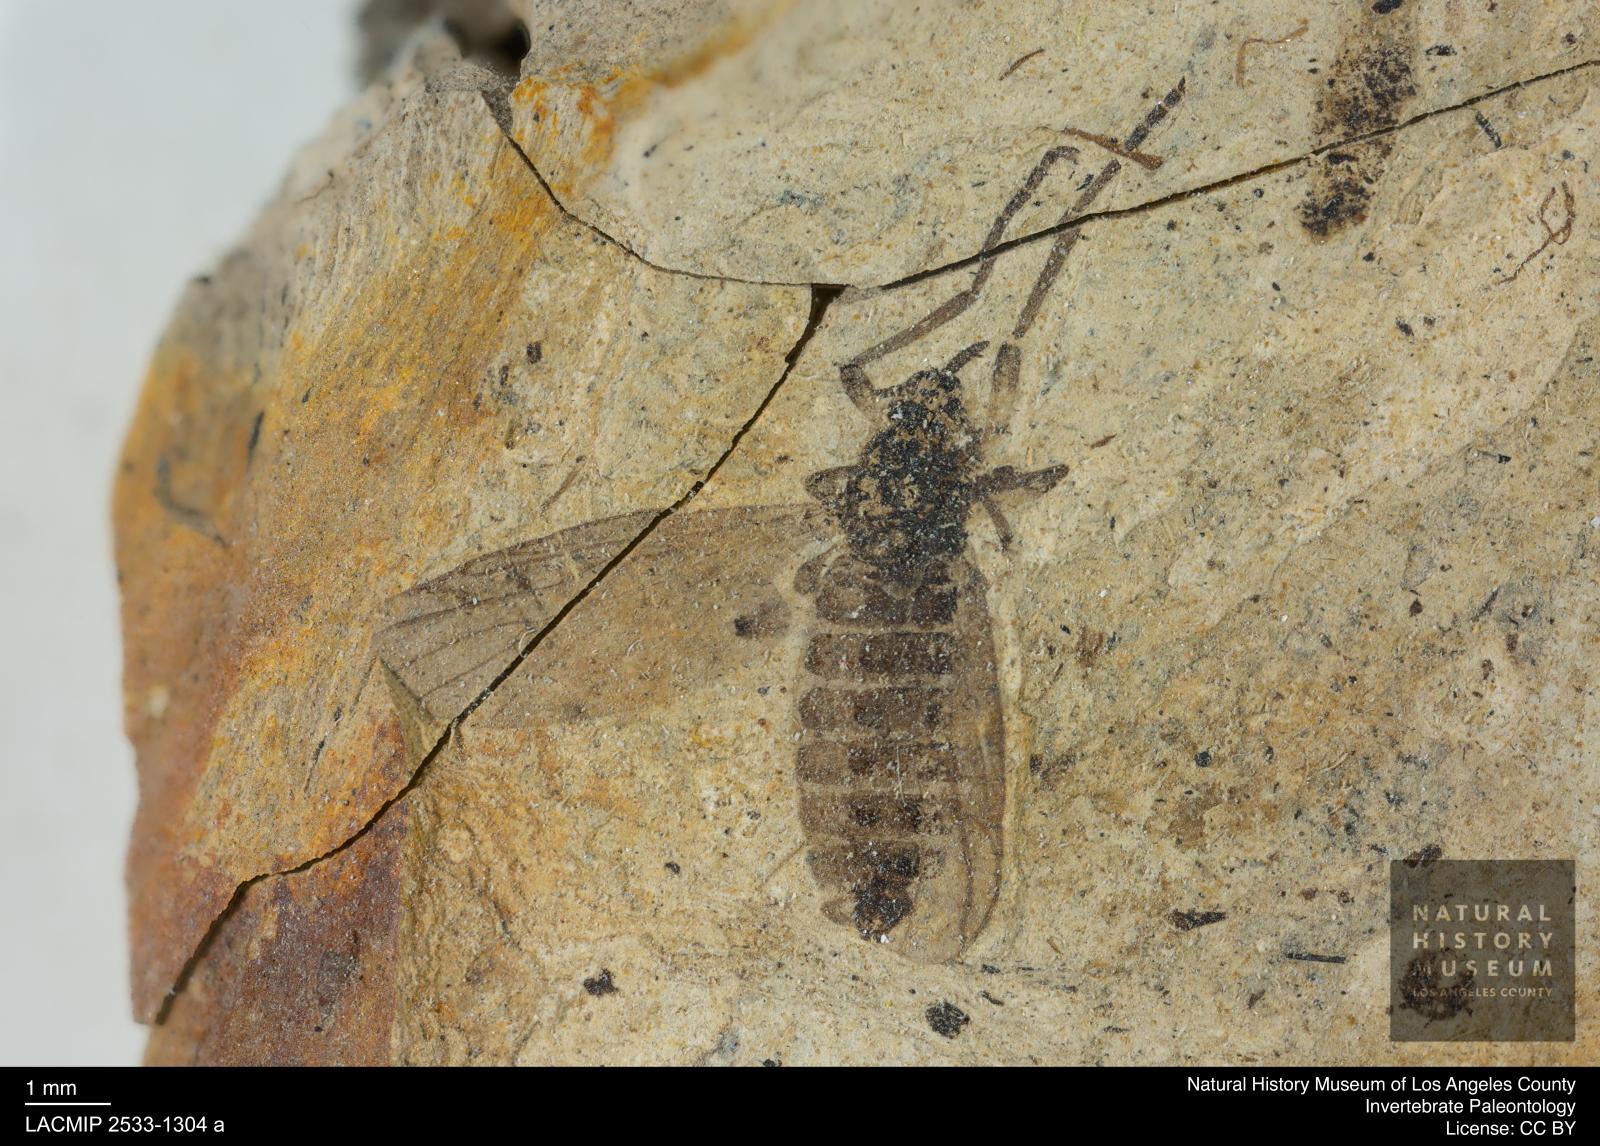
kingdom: Animalia
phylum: Arthropoda
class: Insecta
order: Diptera
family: Bibionidae
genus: Plecia
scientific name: Plecia hypogaea
